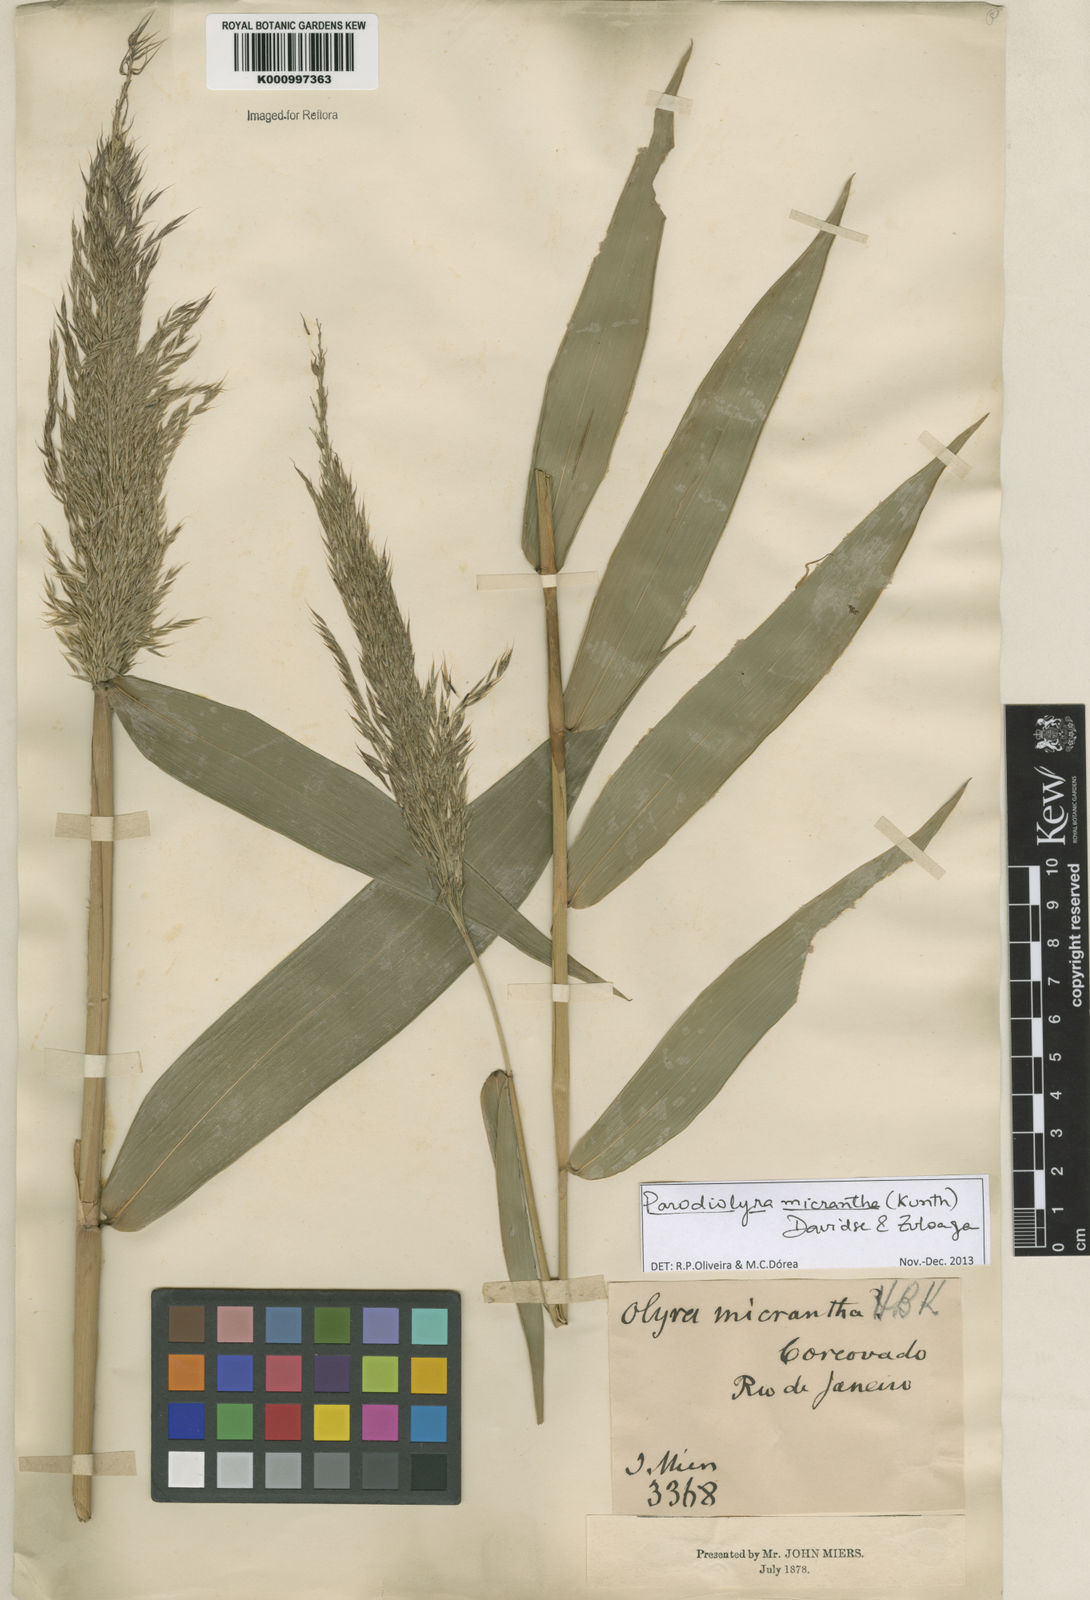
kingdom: Plantae
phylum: Tracheophyta
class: Liliopsida
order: Poales
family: Poaceae
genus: Taquara
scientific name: Taquara micrantha
